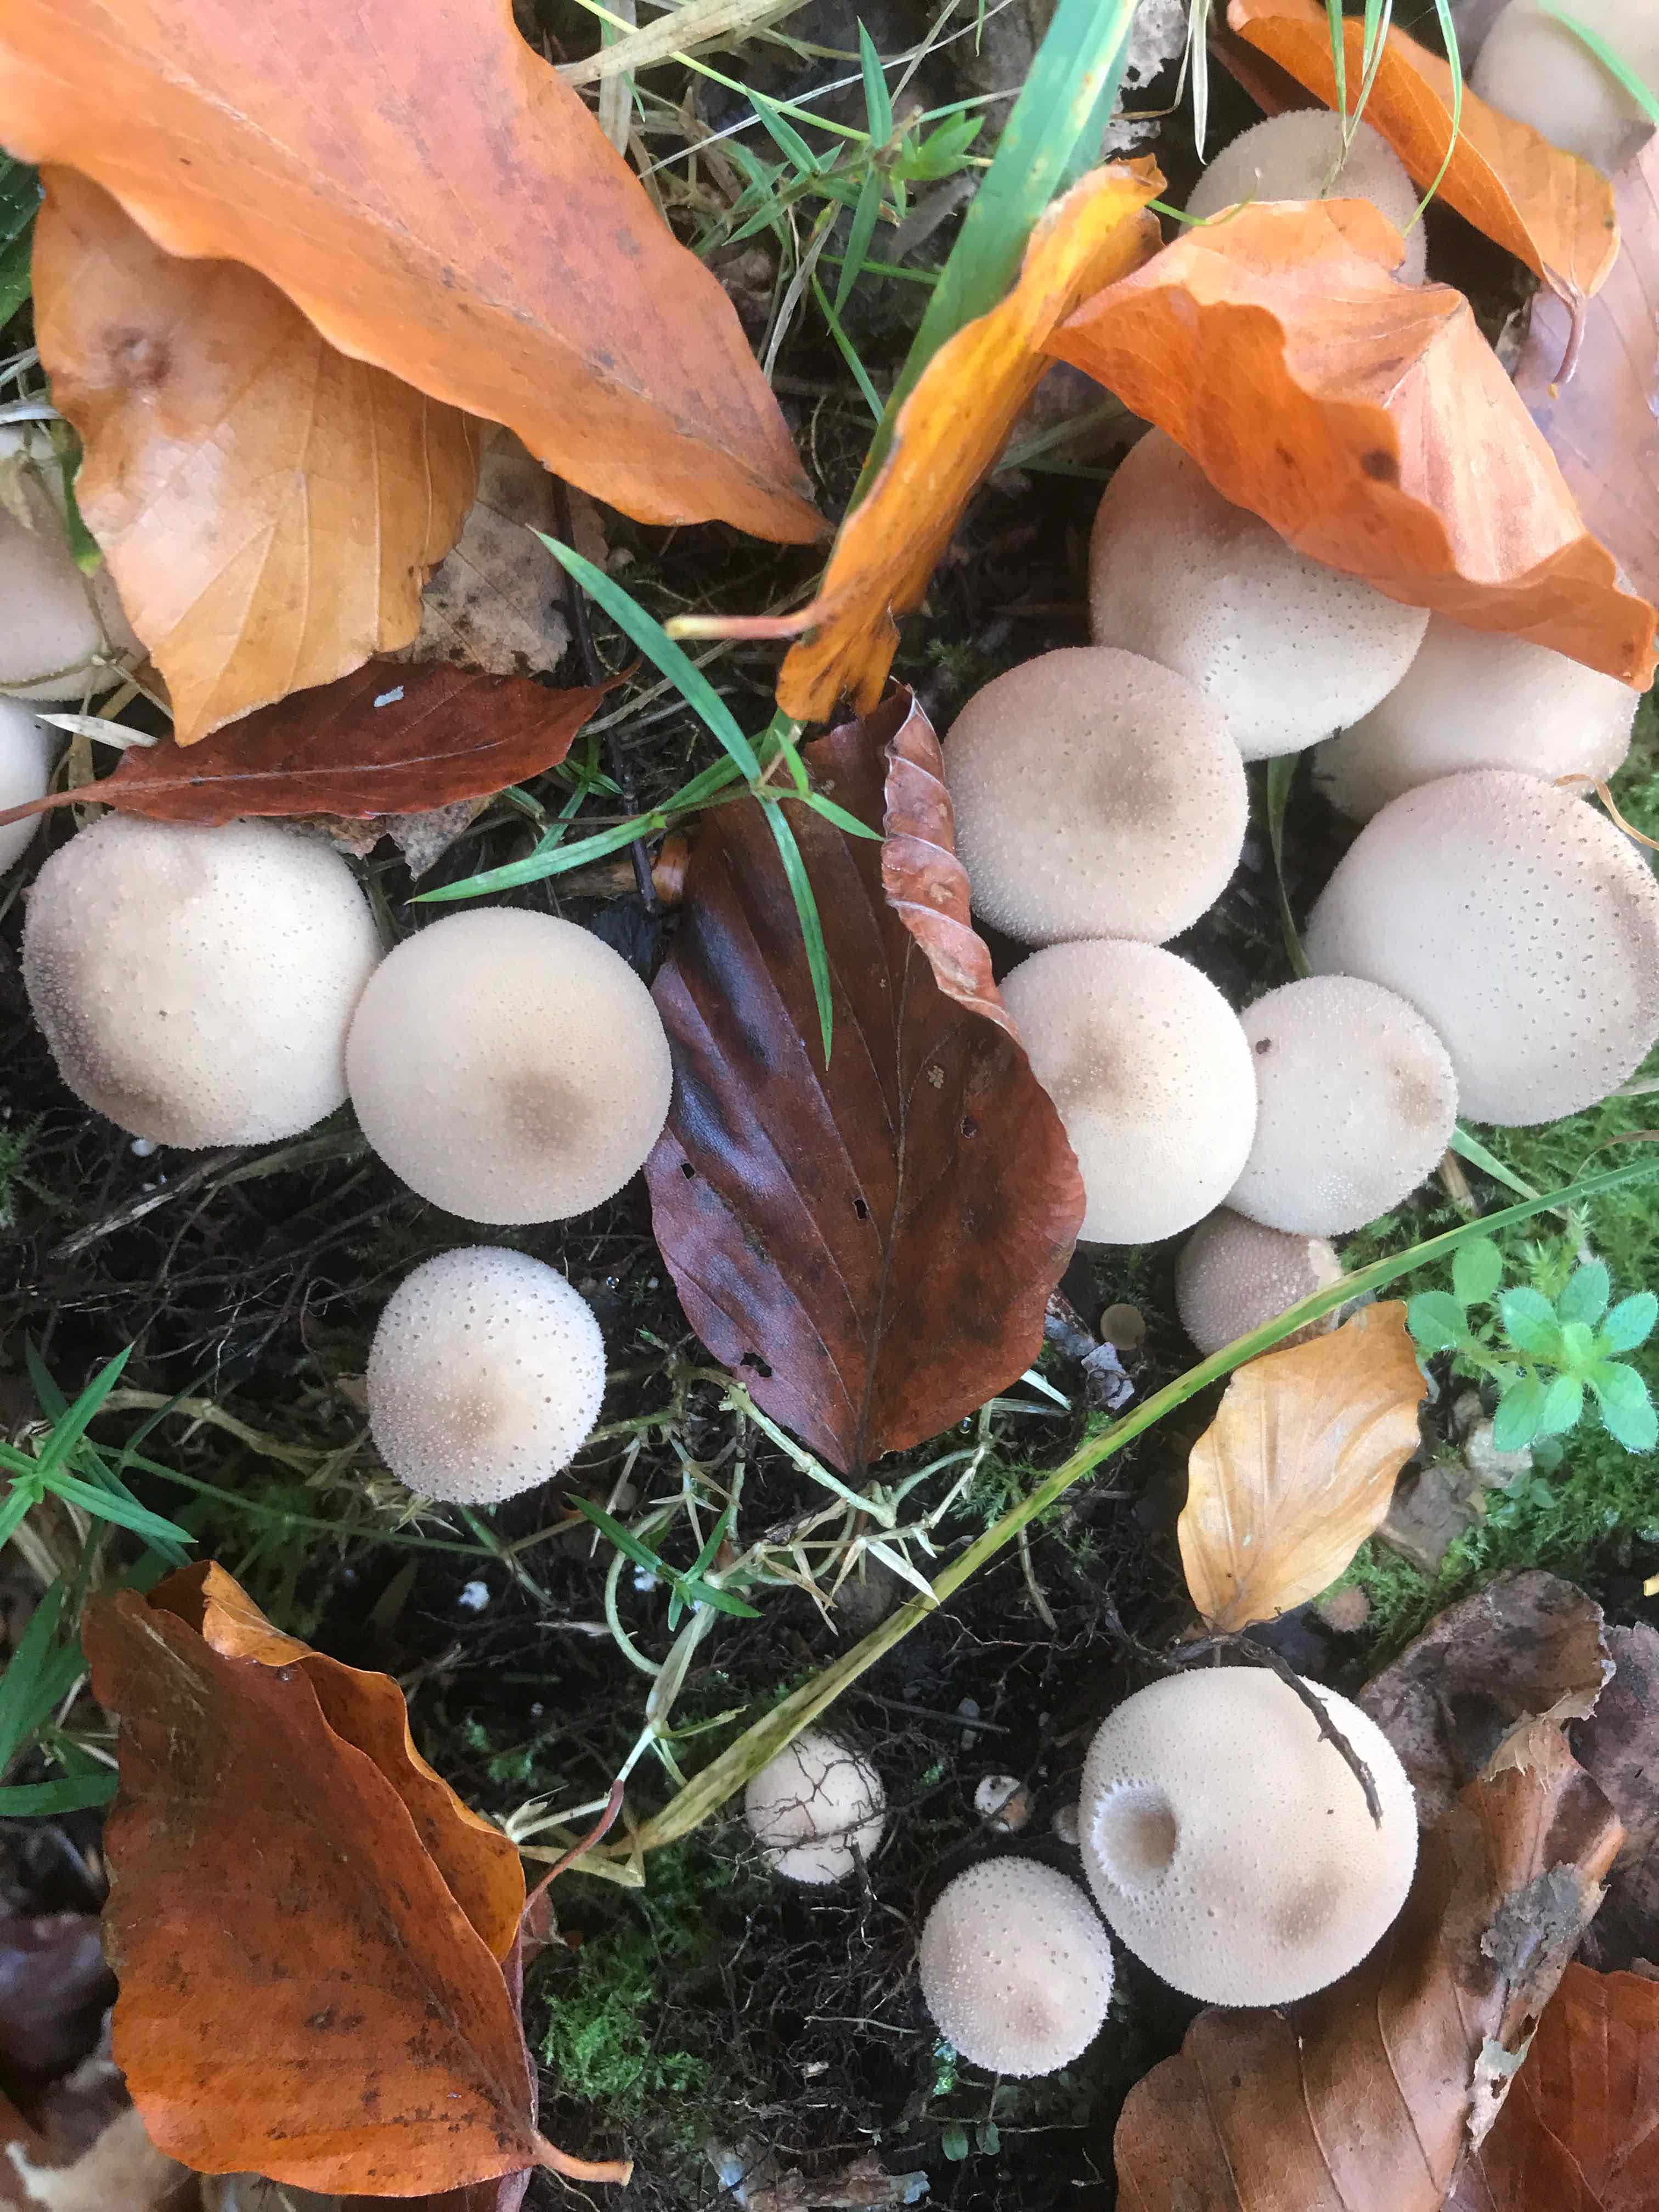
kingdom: Fungi
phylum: Basidiomycota
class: Agaricomycetes
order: Agaricales
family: Lycoperdaceae
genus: Apioperdon
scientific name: Apioperdon pyriforme
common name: pære-støvbold
